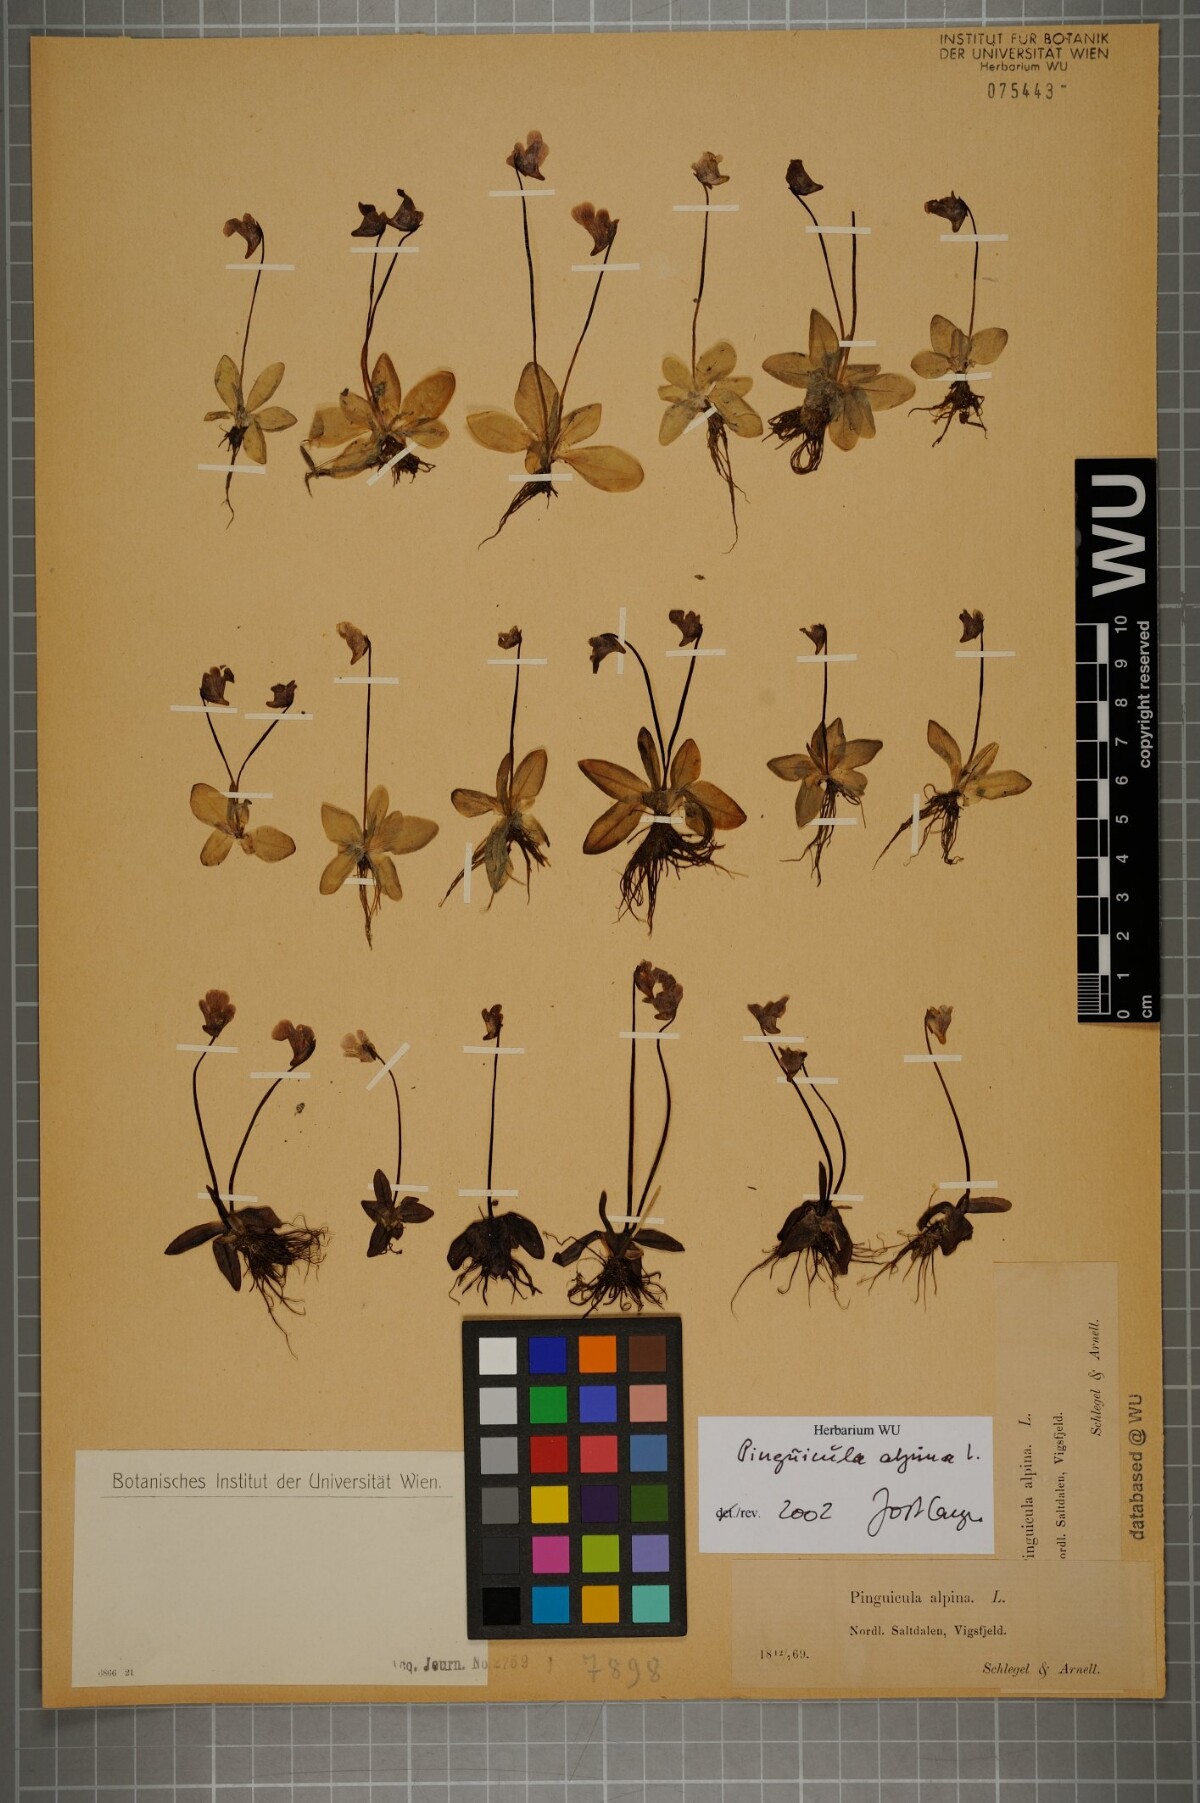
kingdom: Plantae
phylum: Tracheophyta
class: Magnoliopsida
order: Lamiales
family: Lentibulariaceae
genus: Pinguicula
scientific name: Pinguicula alpina
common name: Alpine butterwort
